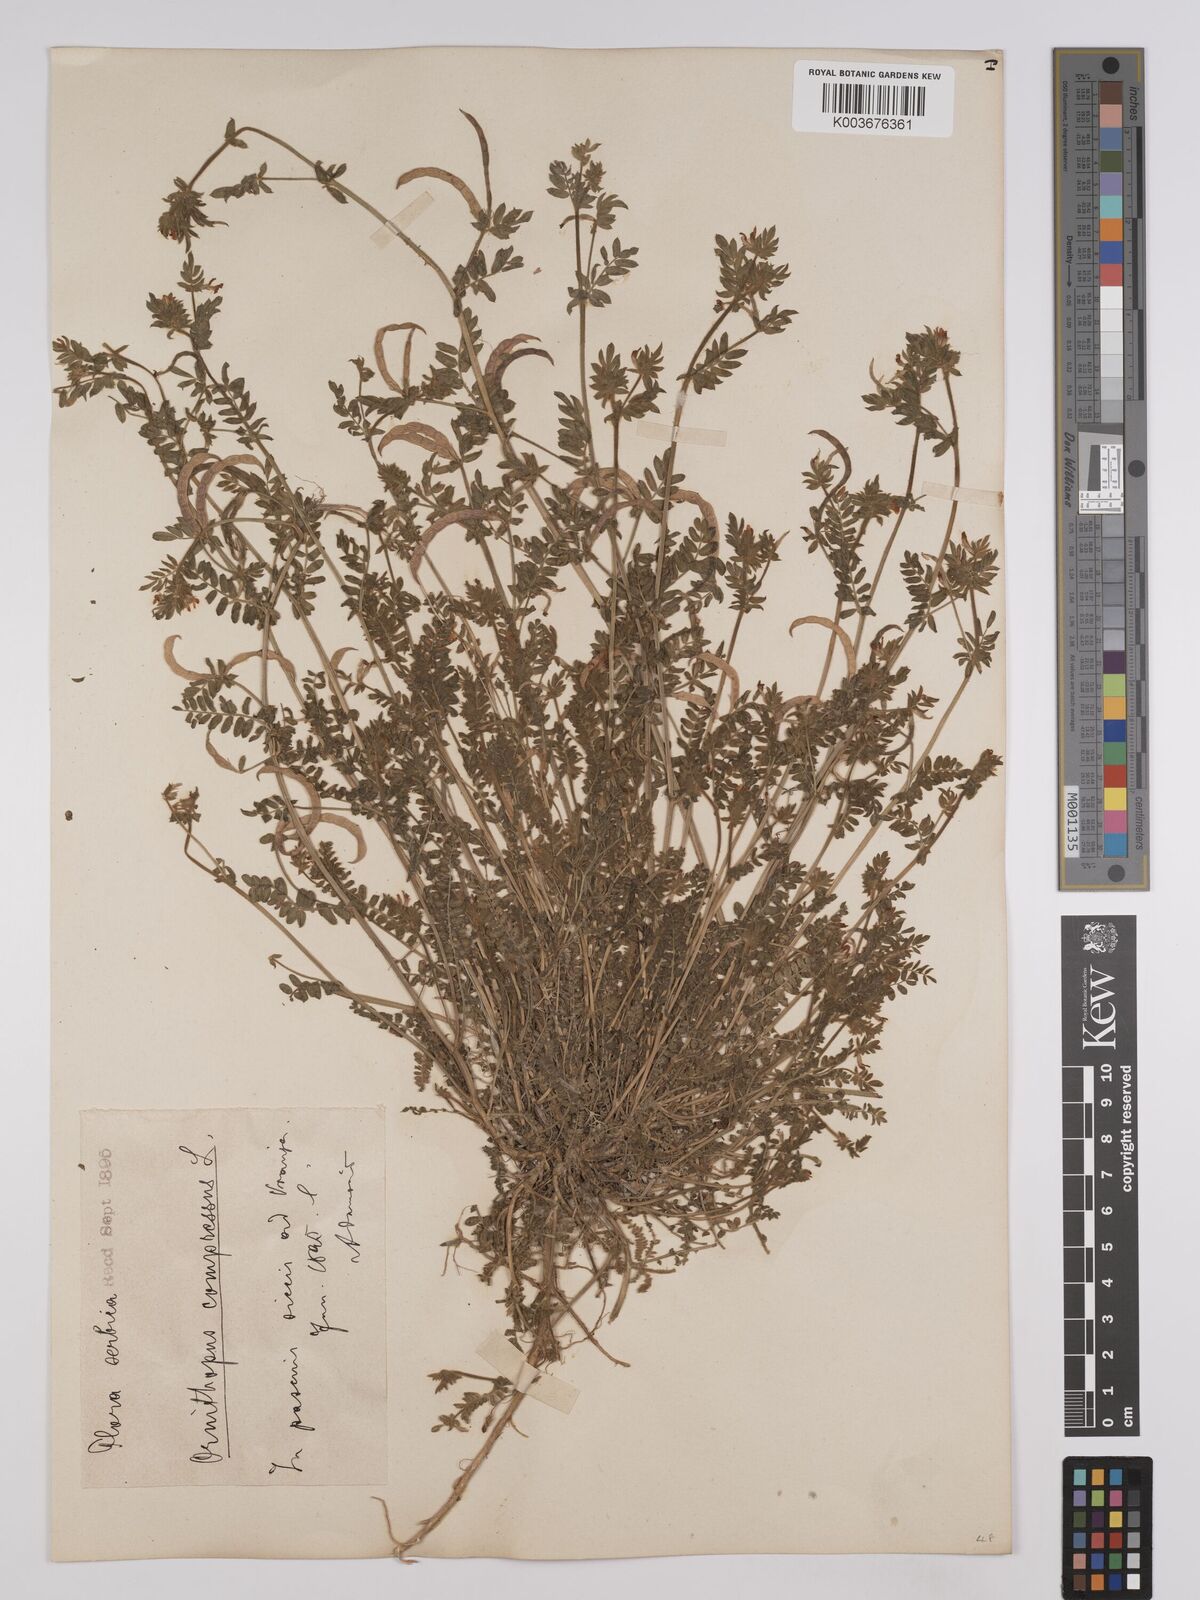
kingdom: Plantae
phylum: Tracheophyta
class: Magnoliopsida
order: Fabales
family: Fabaceae
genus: Ornithopus
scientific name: Ornithopus compressus
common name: Yellow serradella
